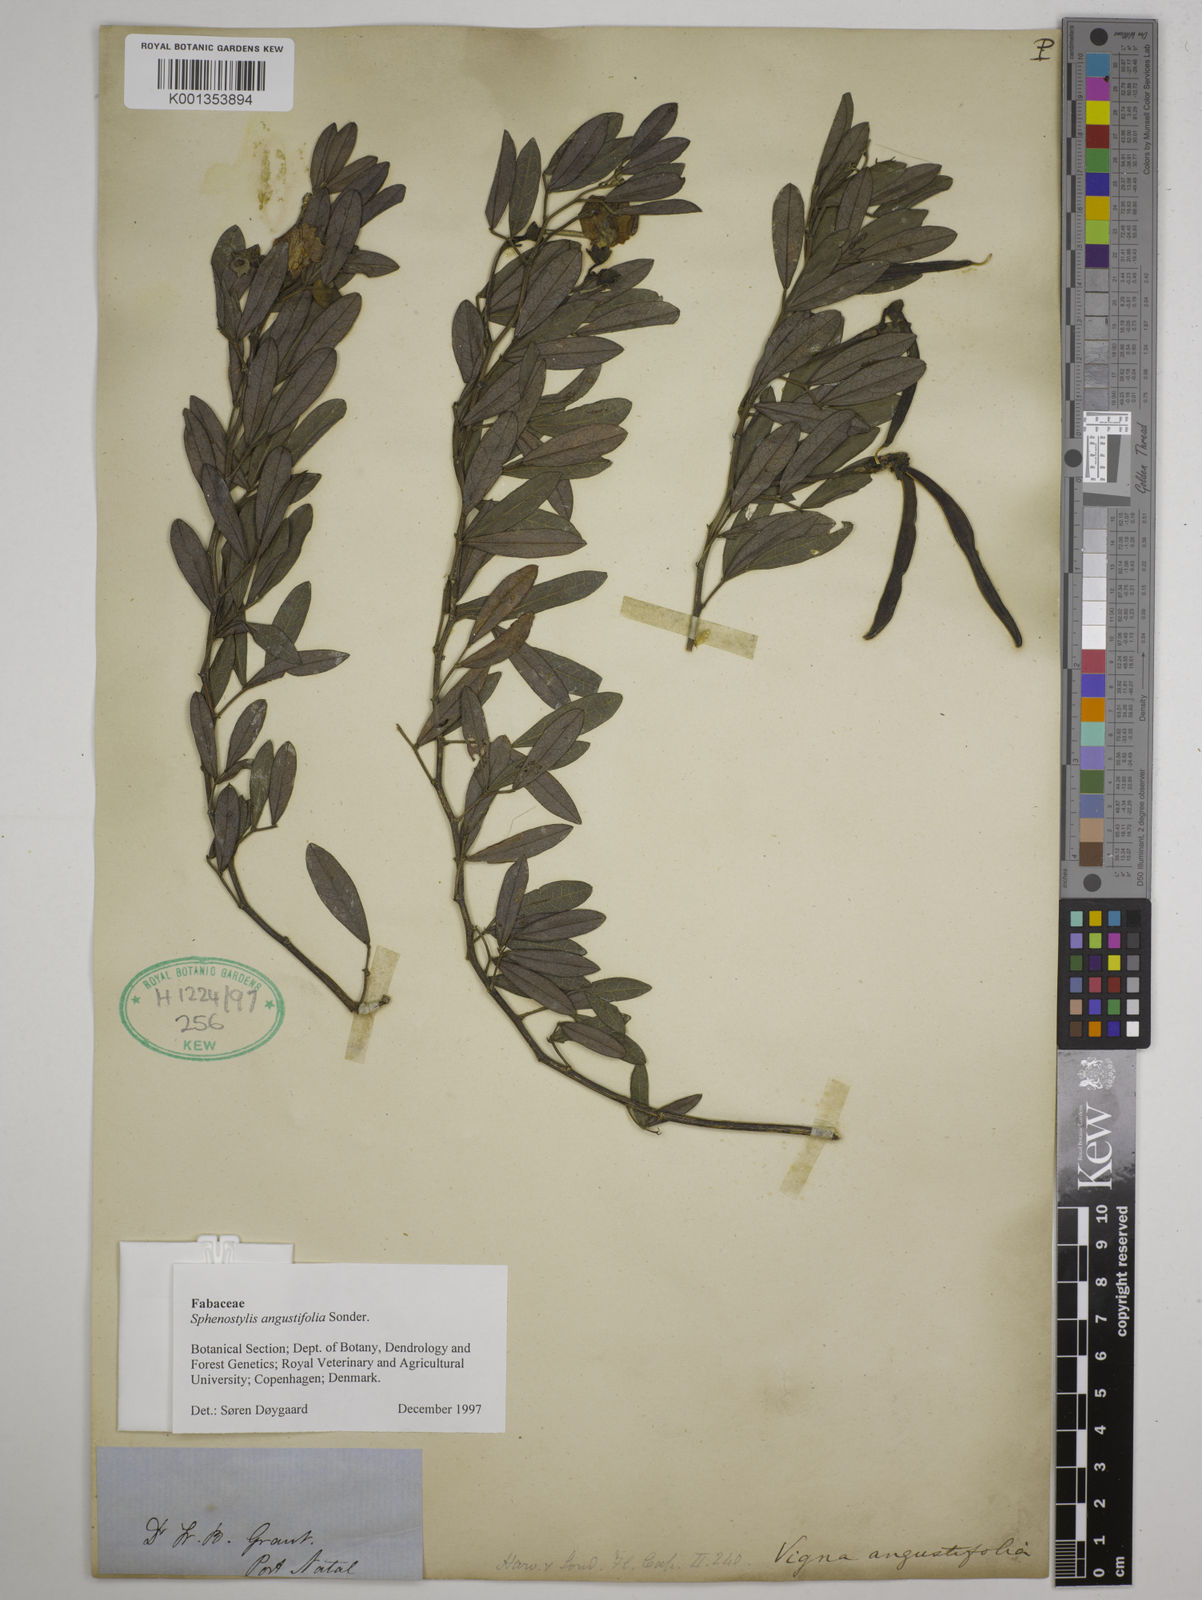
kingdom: Plantae
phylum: Tracheophyta
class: Magnoliopsida
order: Fabales
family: Fabaceae
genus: Sphenostylis
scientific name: Sphenostylis angustifolia
